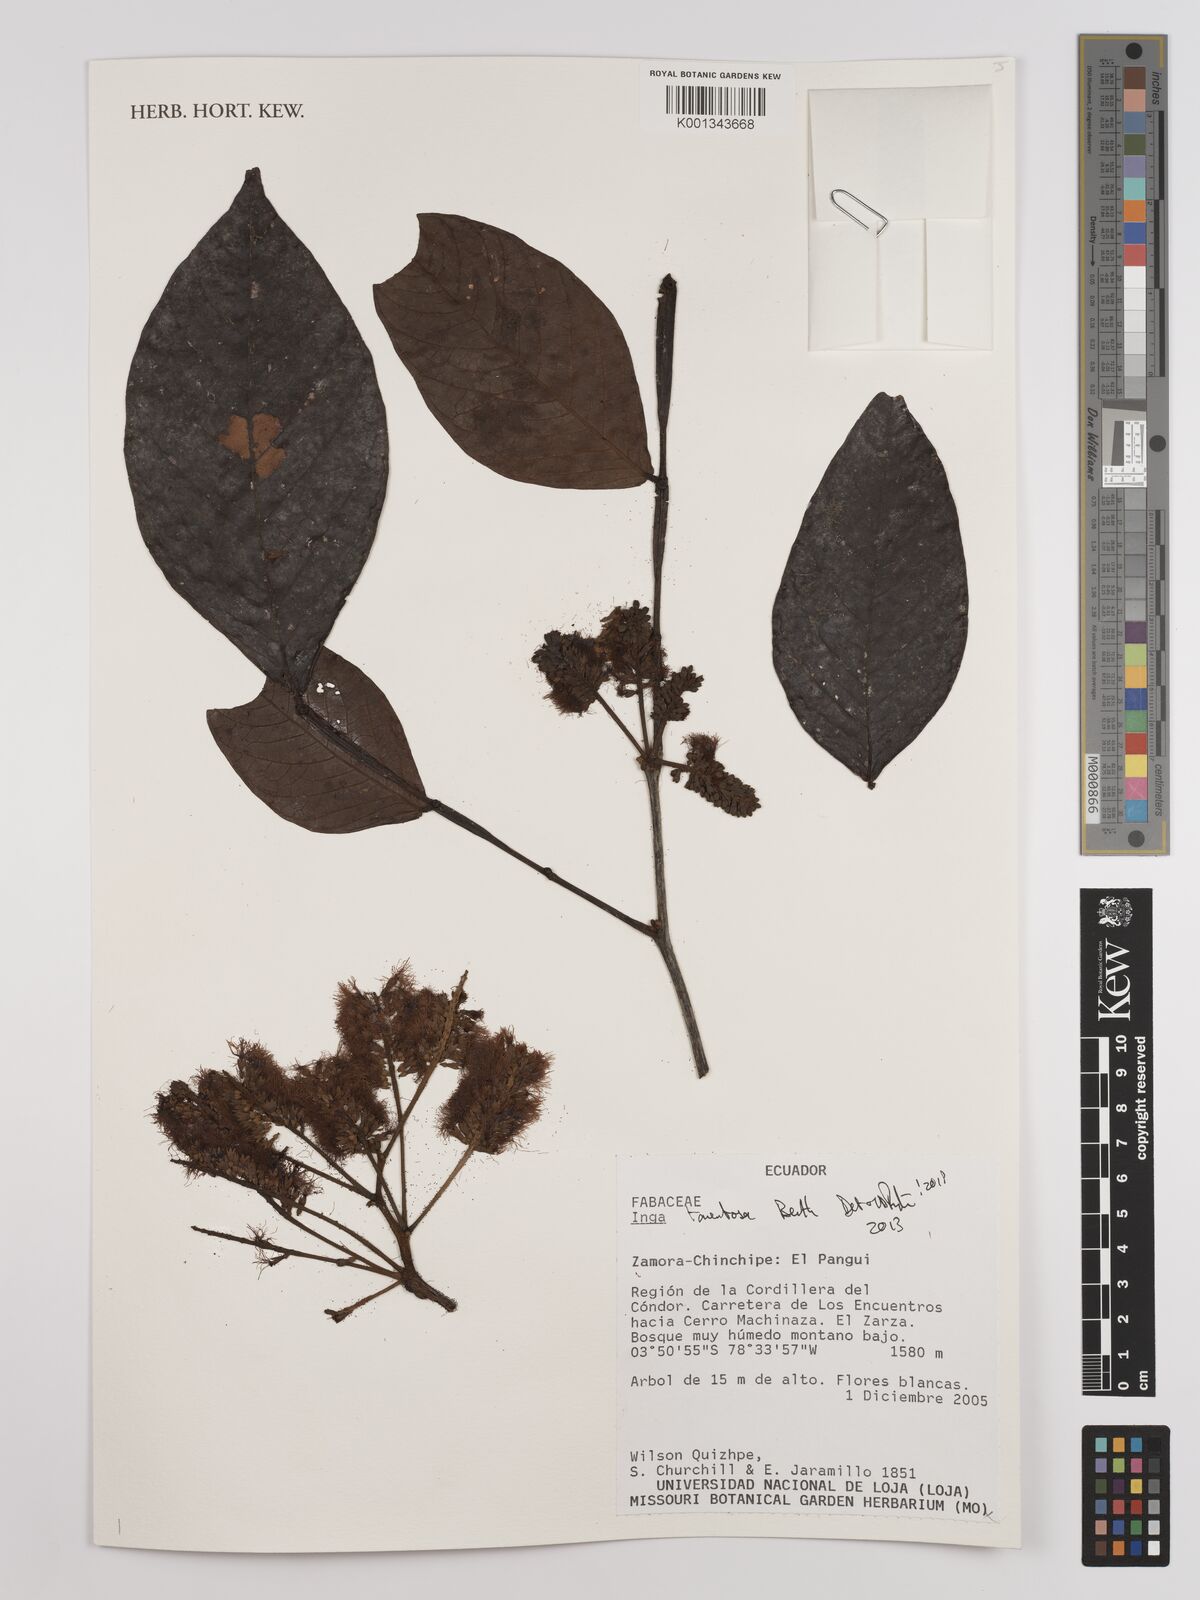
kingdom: Plantae
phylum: Tracheophyta
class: Magnoliopsida
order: Fabales
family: Fabaceae
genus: Inga
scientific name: Inga tomentosa
